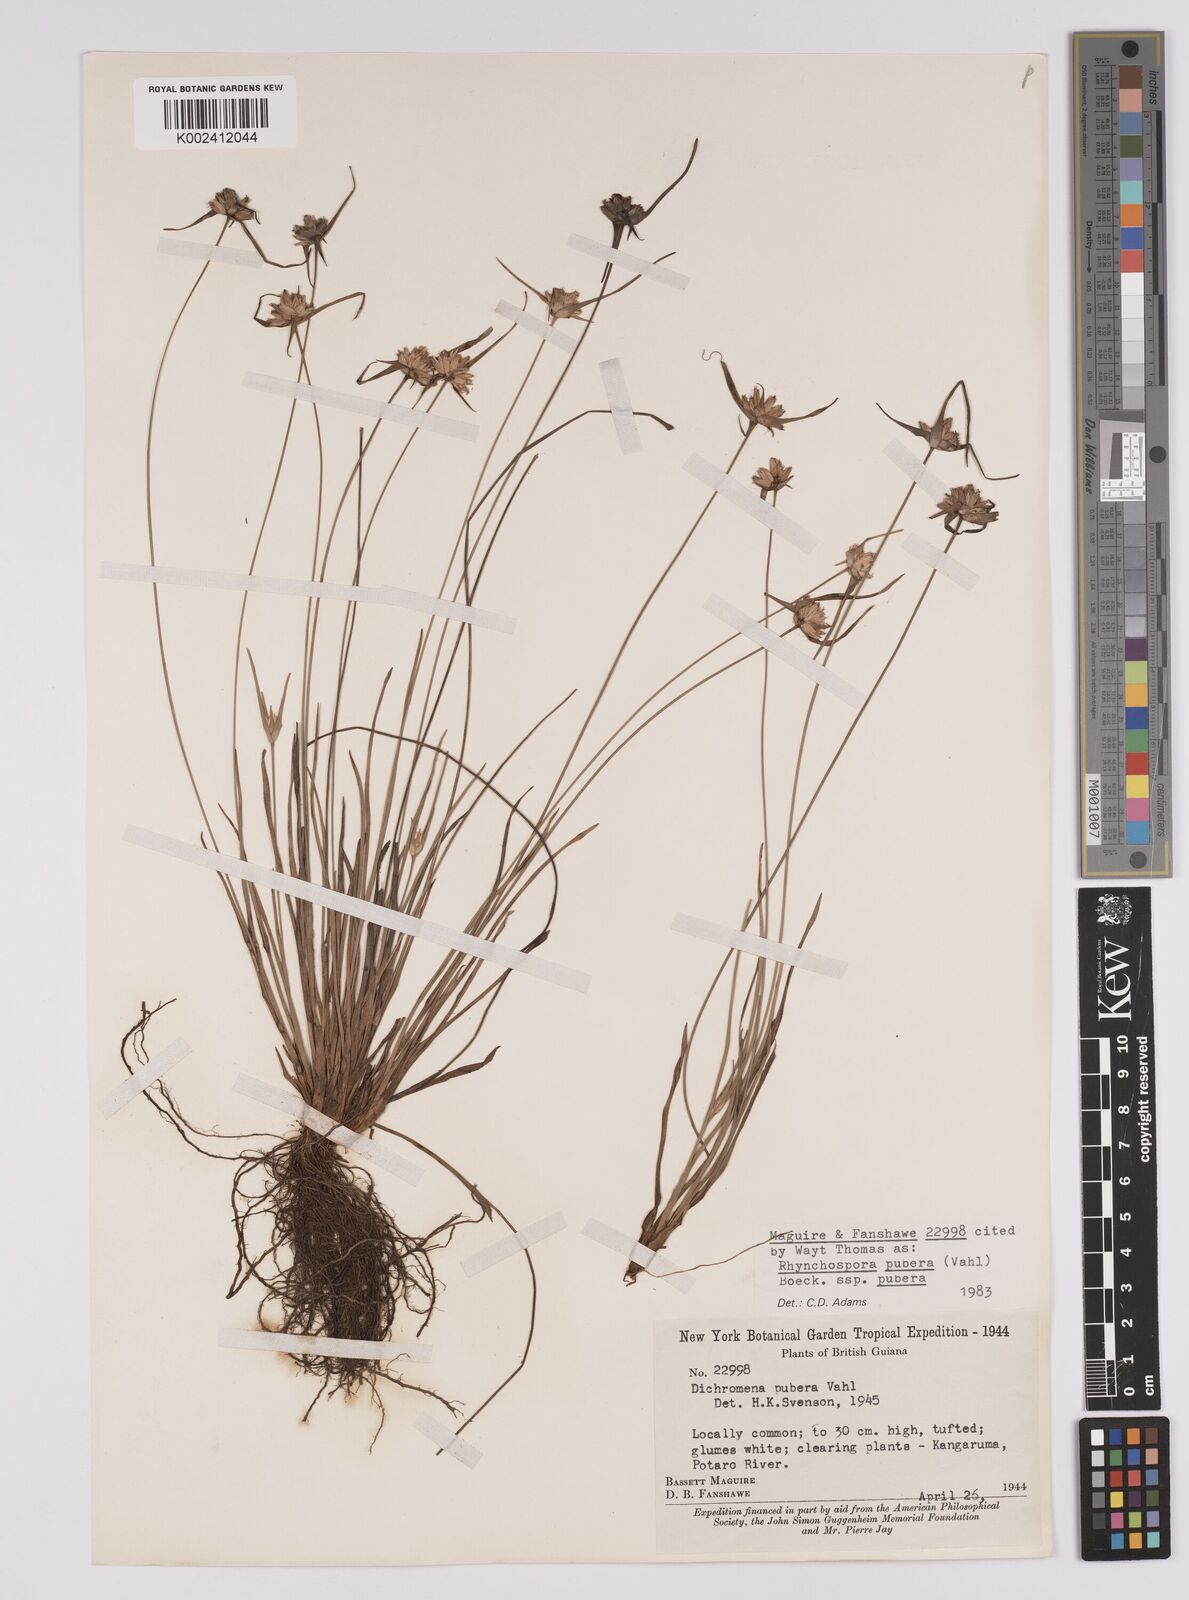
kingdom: Plantae
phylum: Tracheophyta
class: Liliopsida
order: Poales
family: Cyperaceae
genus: Rhynchospora
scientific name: Rhynchospora pubera
